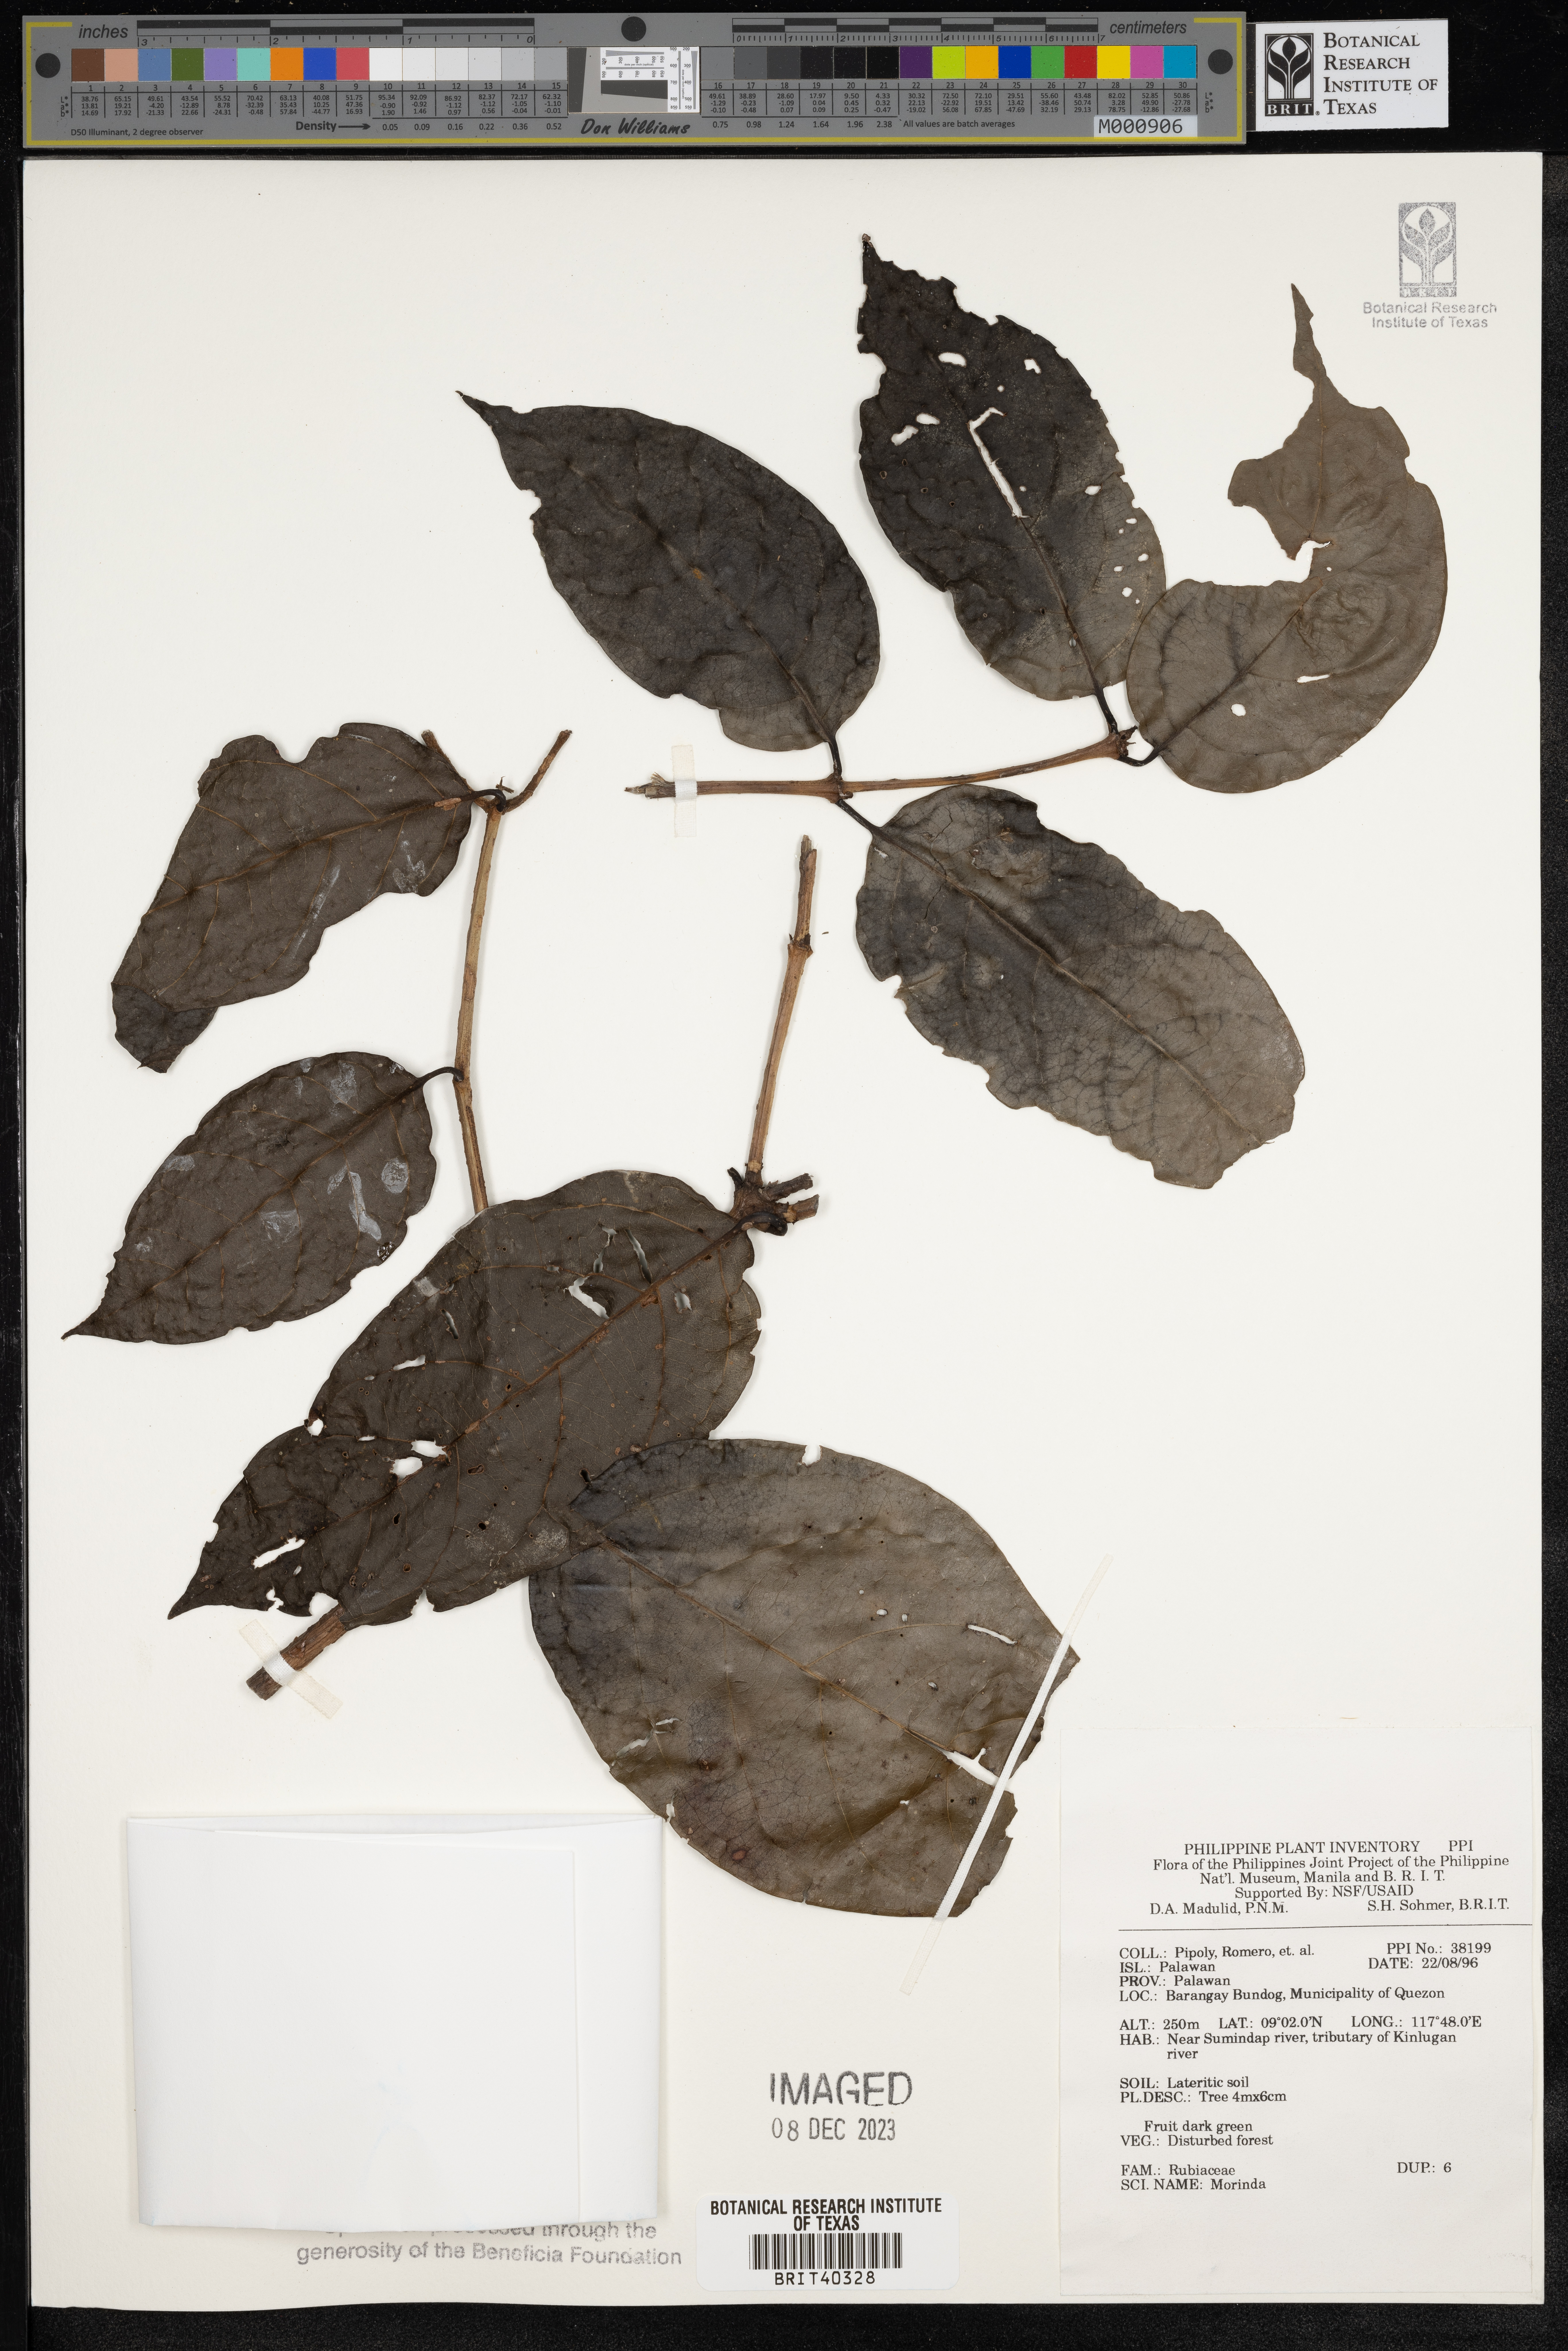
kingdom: Plantae
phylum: Tracheophyta
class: Magnoliopsida
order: Gentianales
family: Rubiaceae
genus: Morinda
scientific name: Morinda
